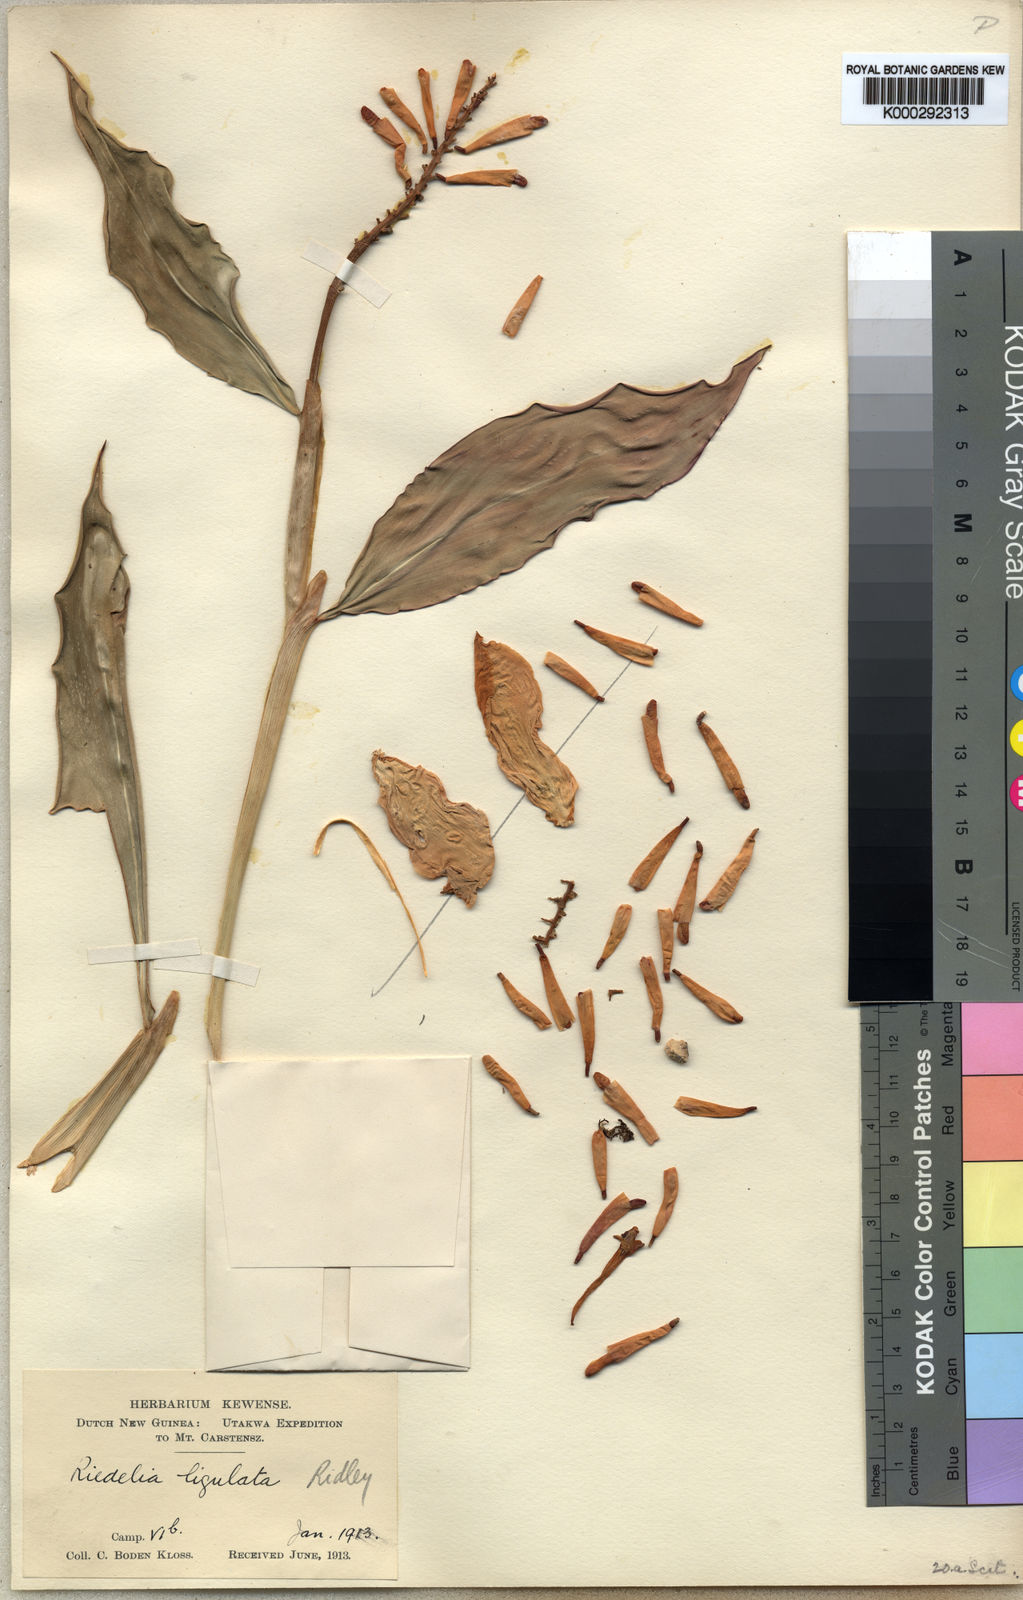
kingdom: Plantae
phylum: Tracheophyta
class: Liliopsida
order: Zingiberales
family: Zingiberaceae
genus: Riedelia
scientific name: Riedelia lanata
